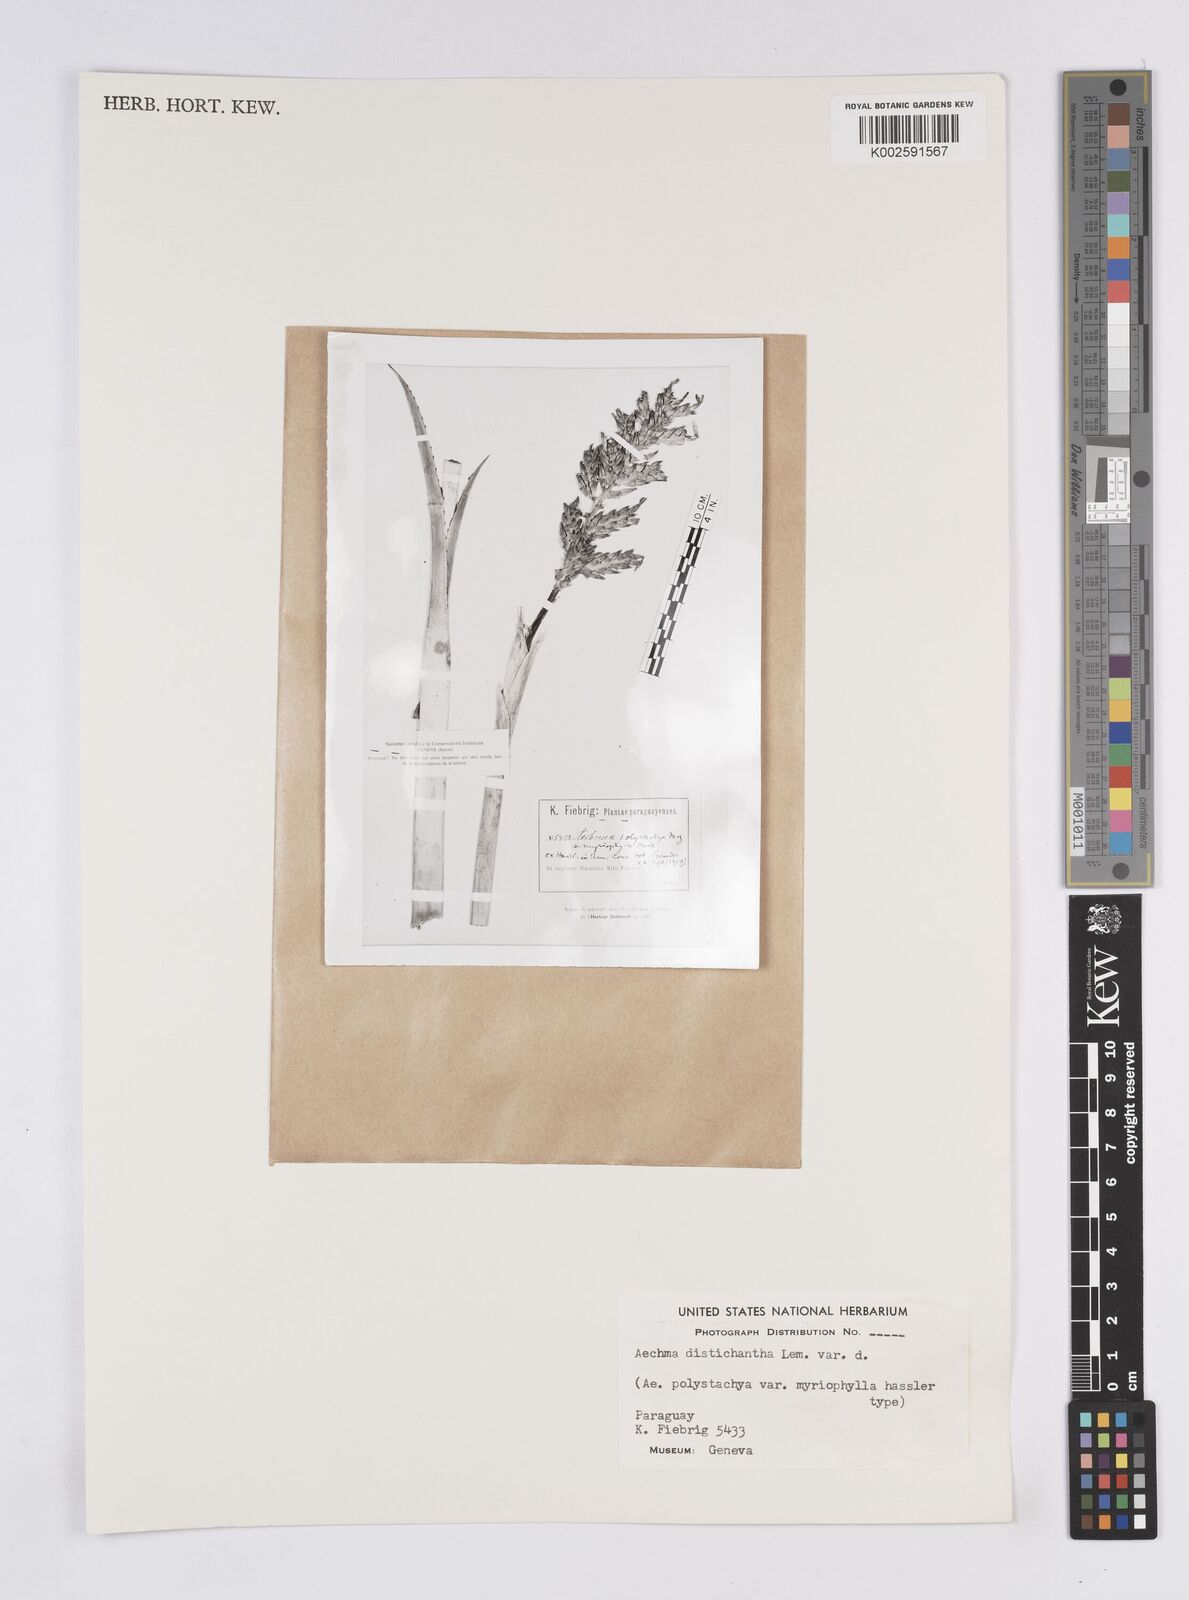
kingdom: Plantae
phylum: Tracheophyta
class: Liliopsida
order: Poales
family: Bromeliaceae
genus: Aechmea
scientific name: Aechmea distichantha
